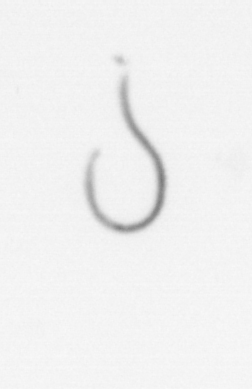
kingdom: Chromista
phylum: Ochrophyta
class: Bacillariophyceae
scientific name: Bacillariophyceae
